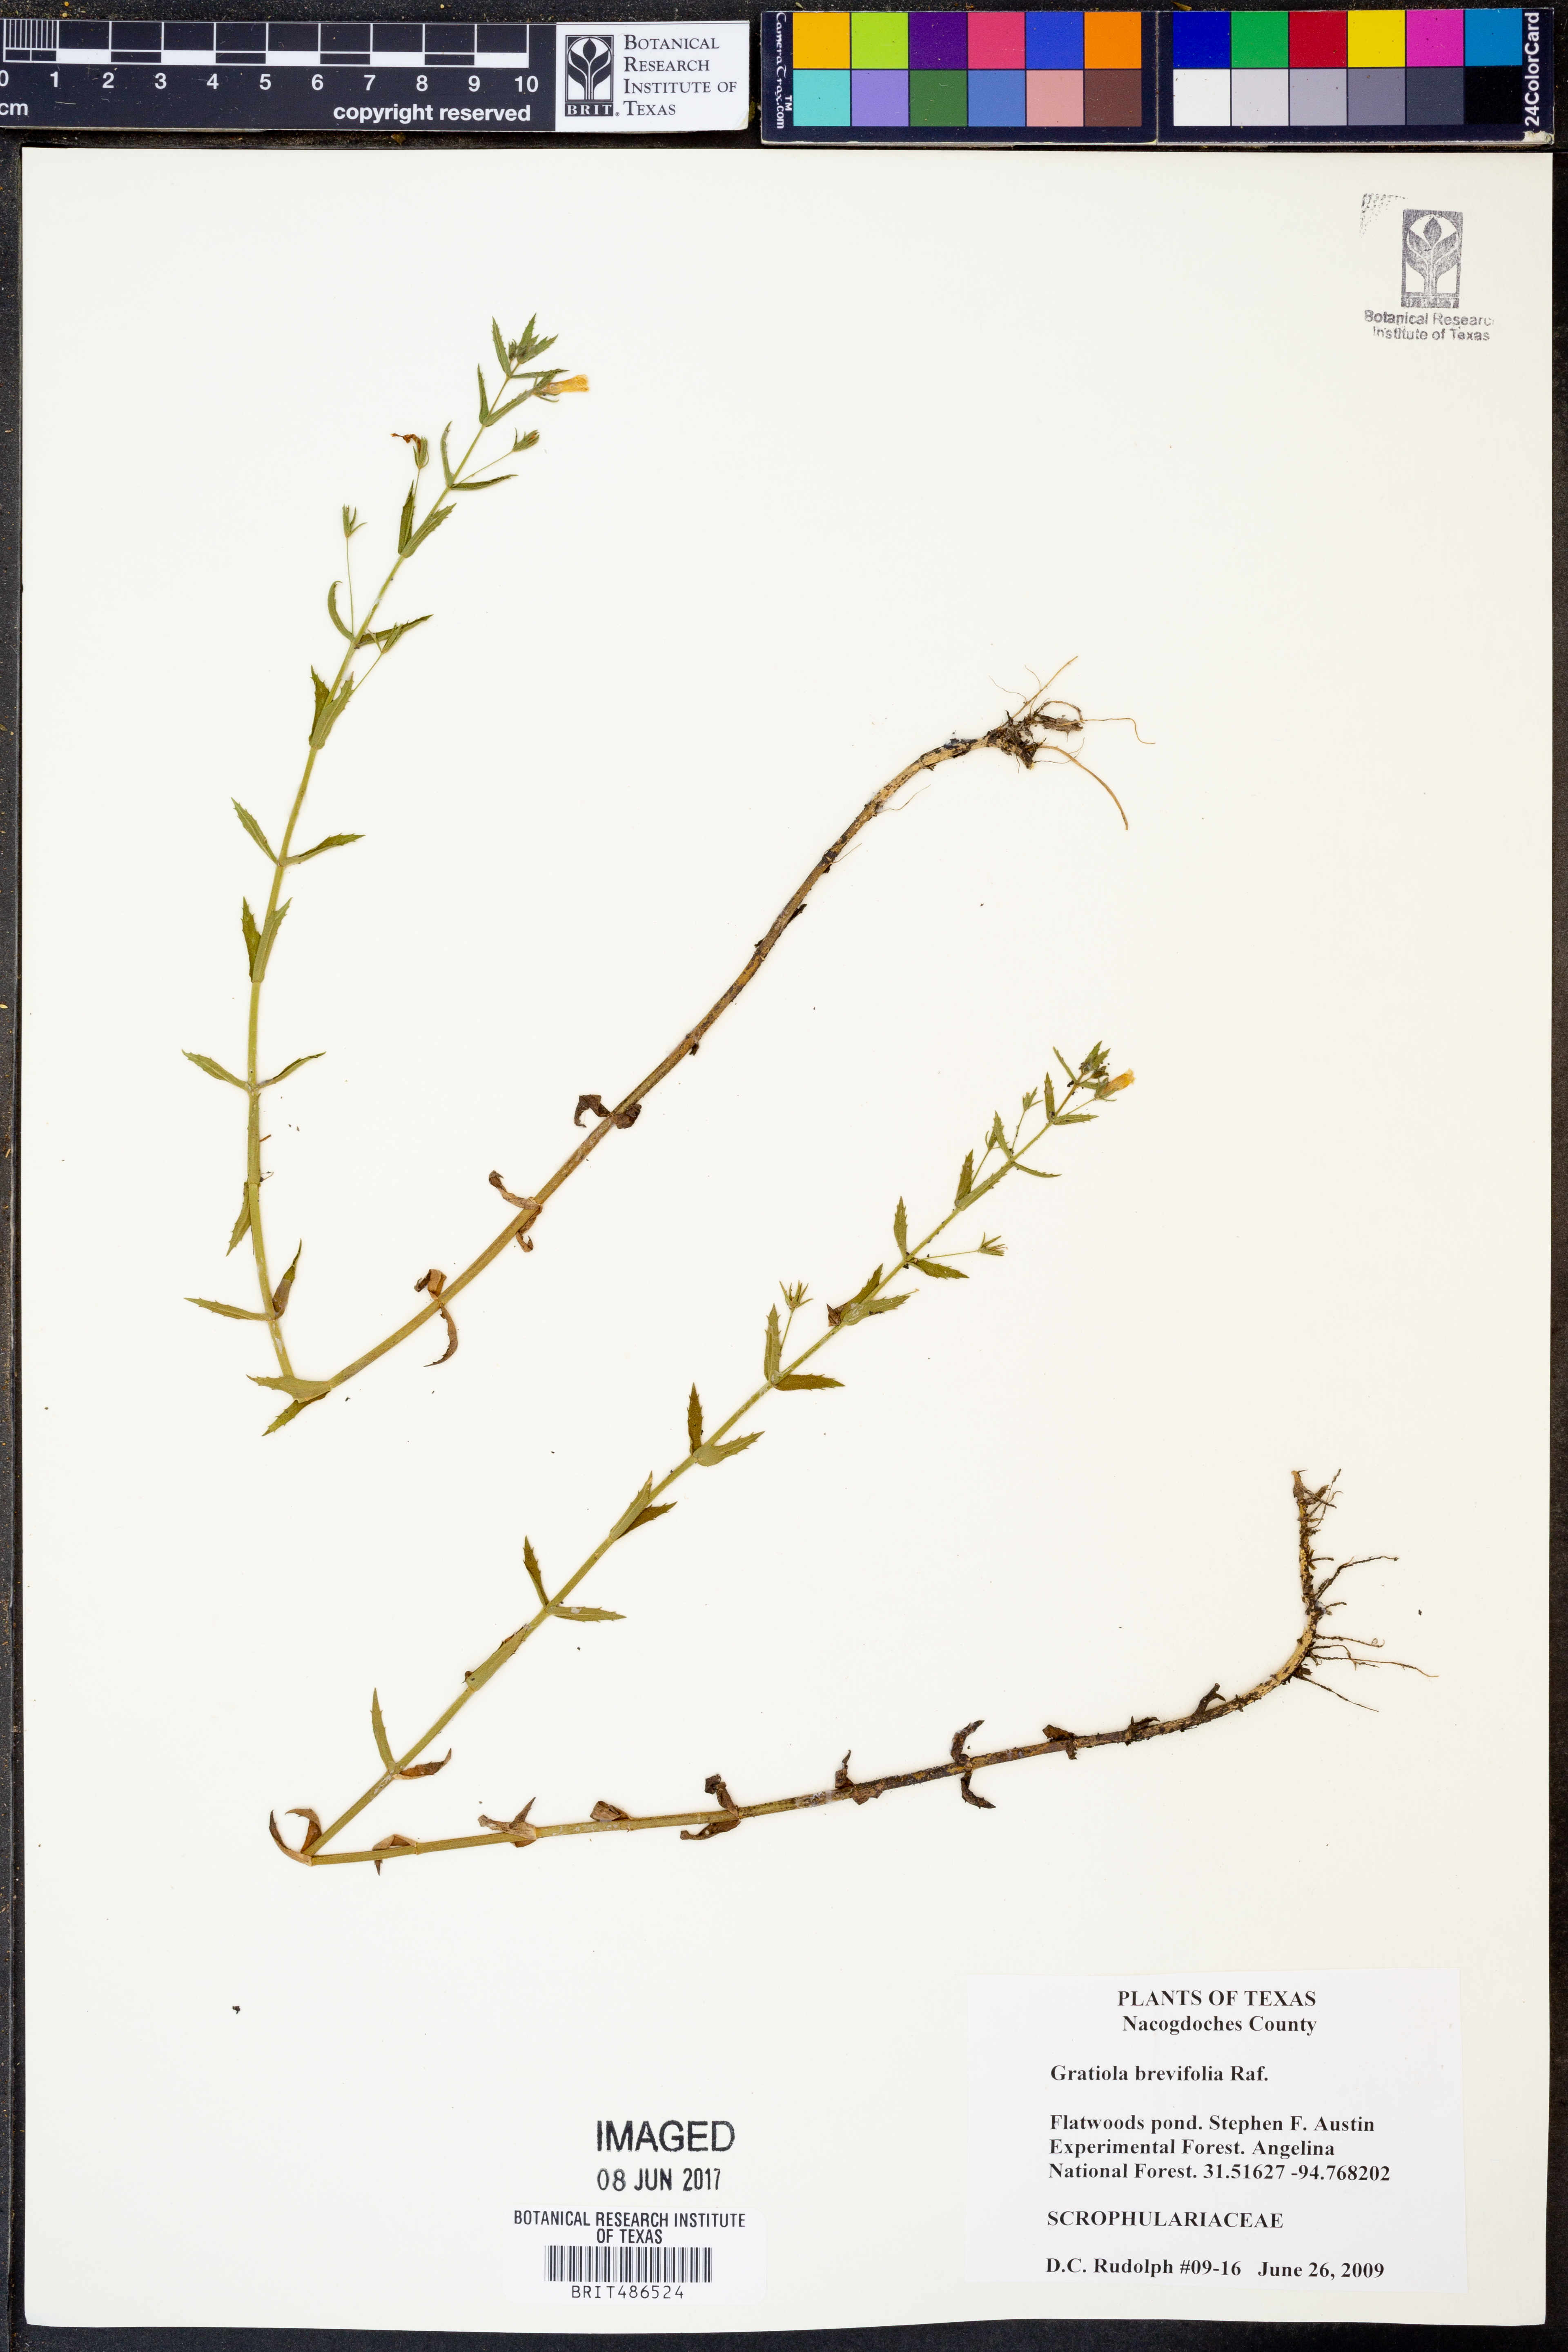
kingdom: Plantae
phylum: Tracheophyta
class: Magnoliopsida
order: Lamiales
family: Plantaginaceae
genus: Gratiola
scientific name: Gratiola brevifolia
